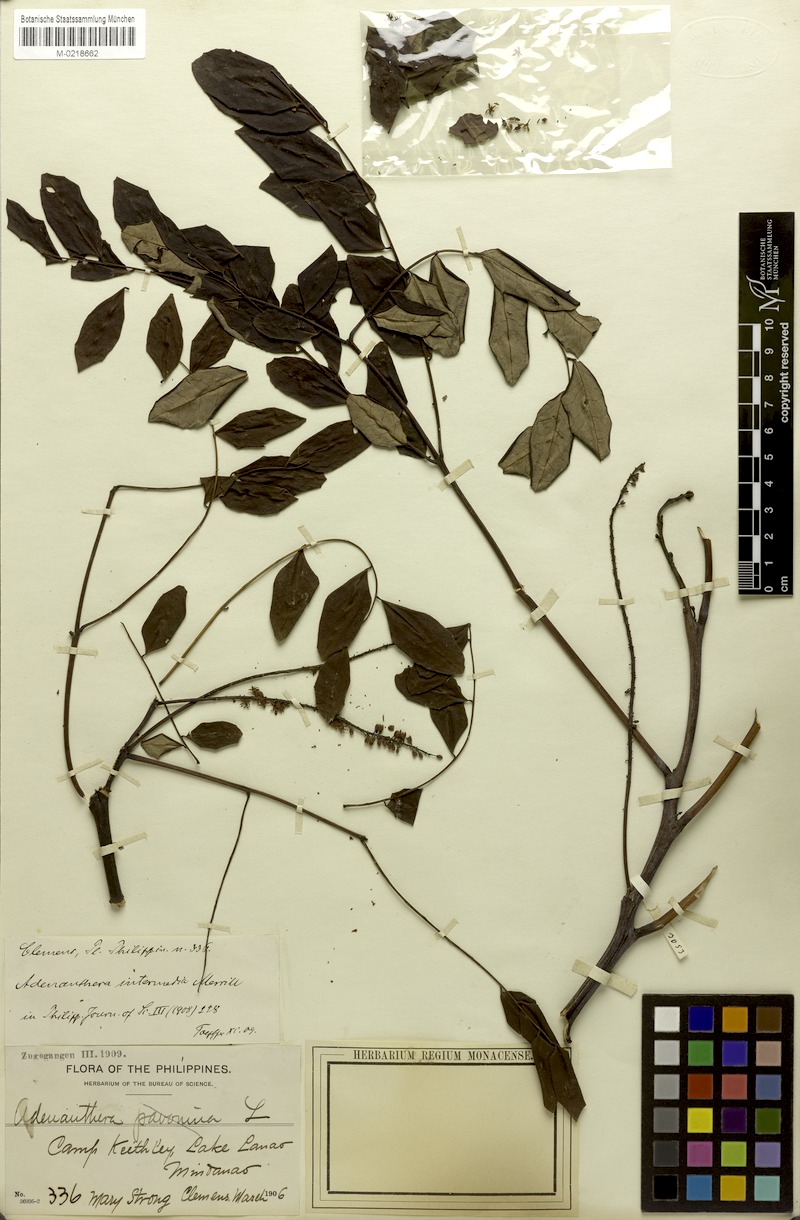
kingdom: Plantae
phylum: Tracheophyta
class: Magnoliopsida
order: Fabales
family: Fabaceae
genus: Adenanthera
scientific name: Adenanthera intermedia
